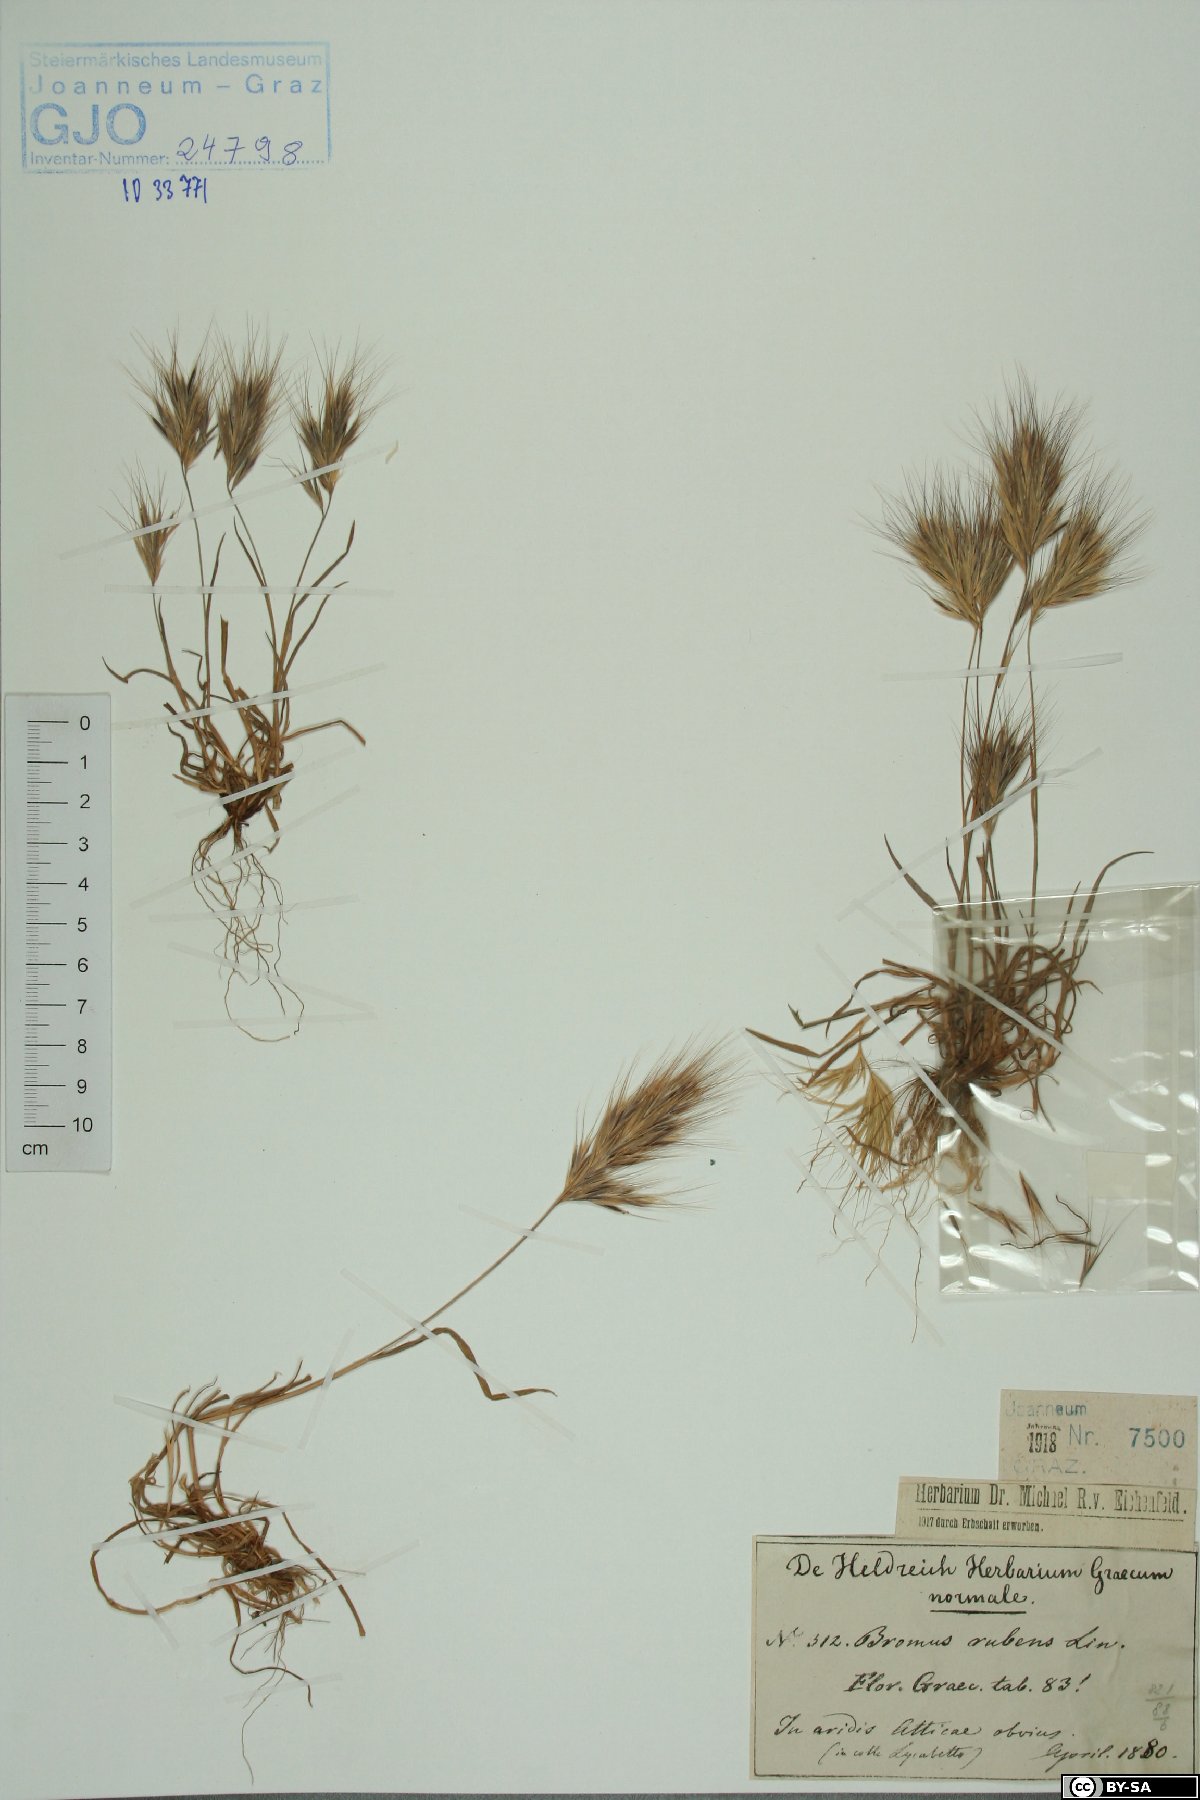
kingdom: Plantae
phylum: Tracheophyta
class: Liliopsida
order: Poales
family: Poaceae
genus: Bromus
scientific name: Bromus rubens
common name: Red brome
